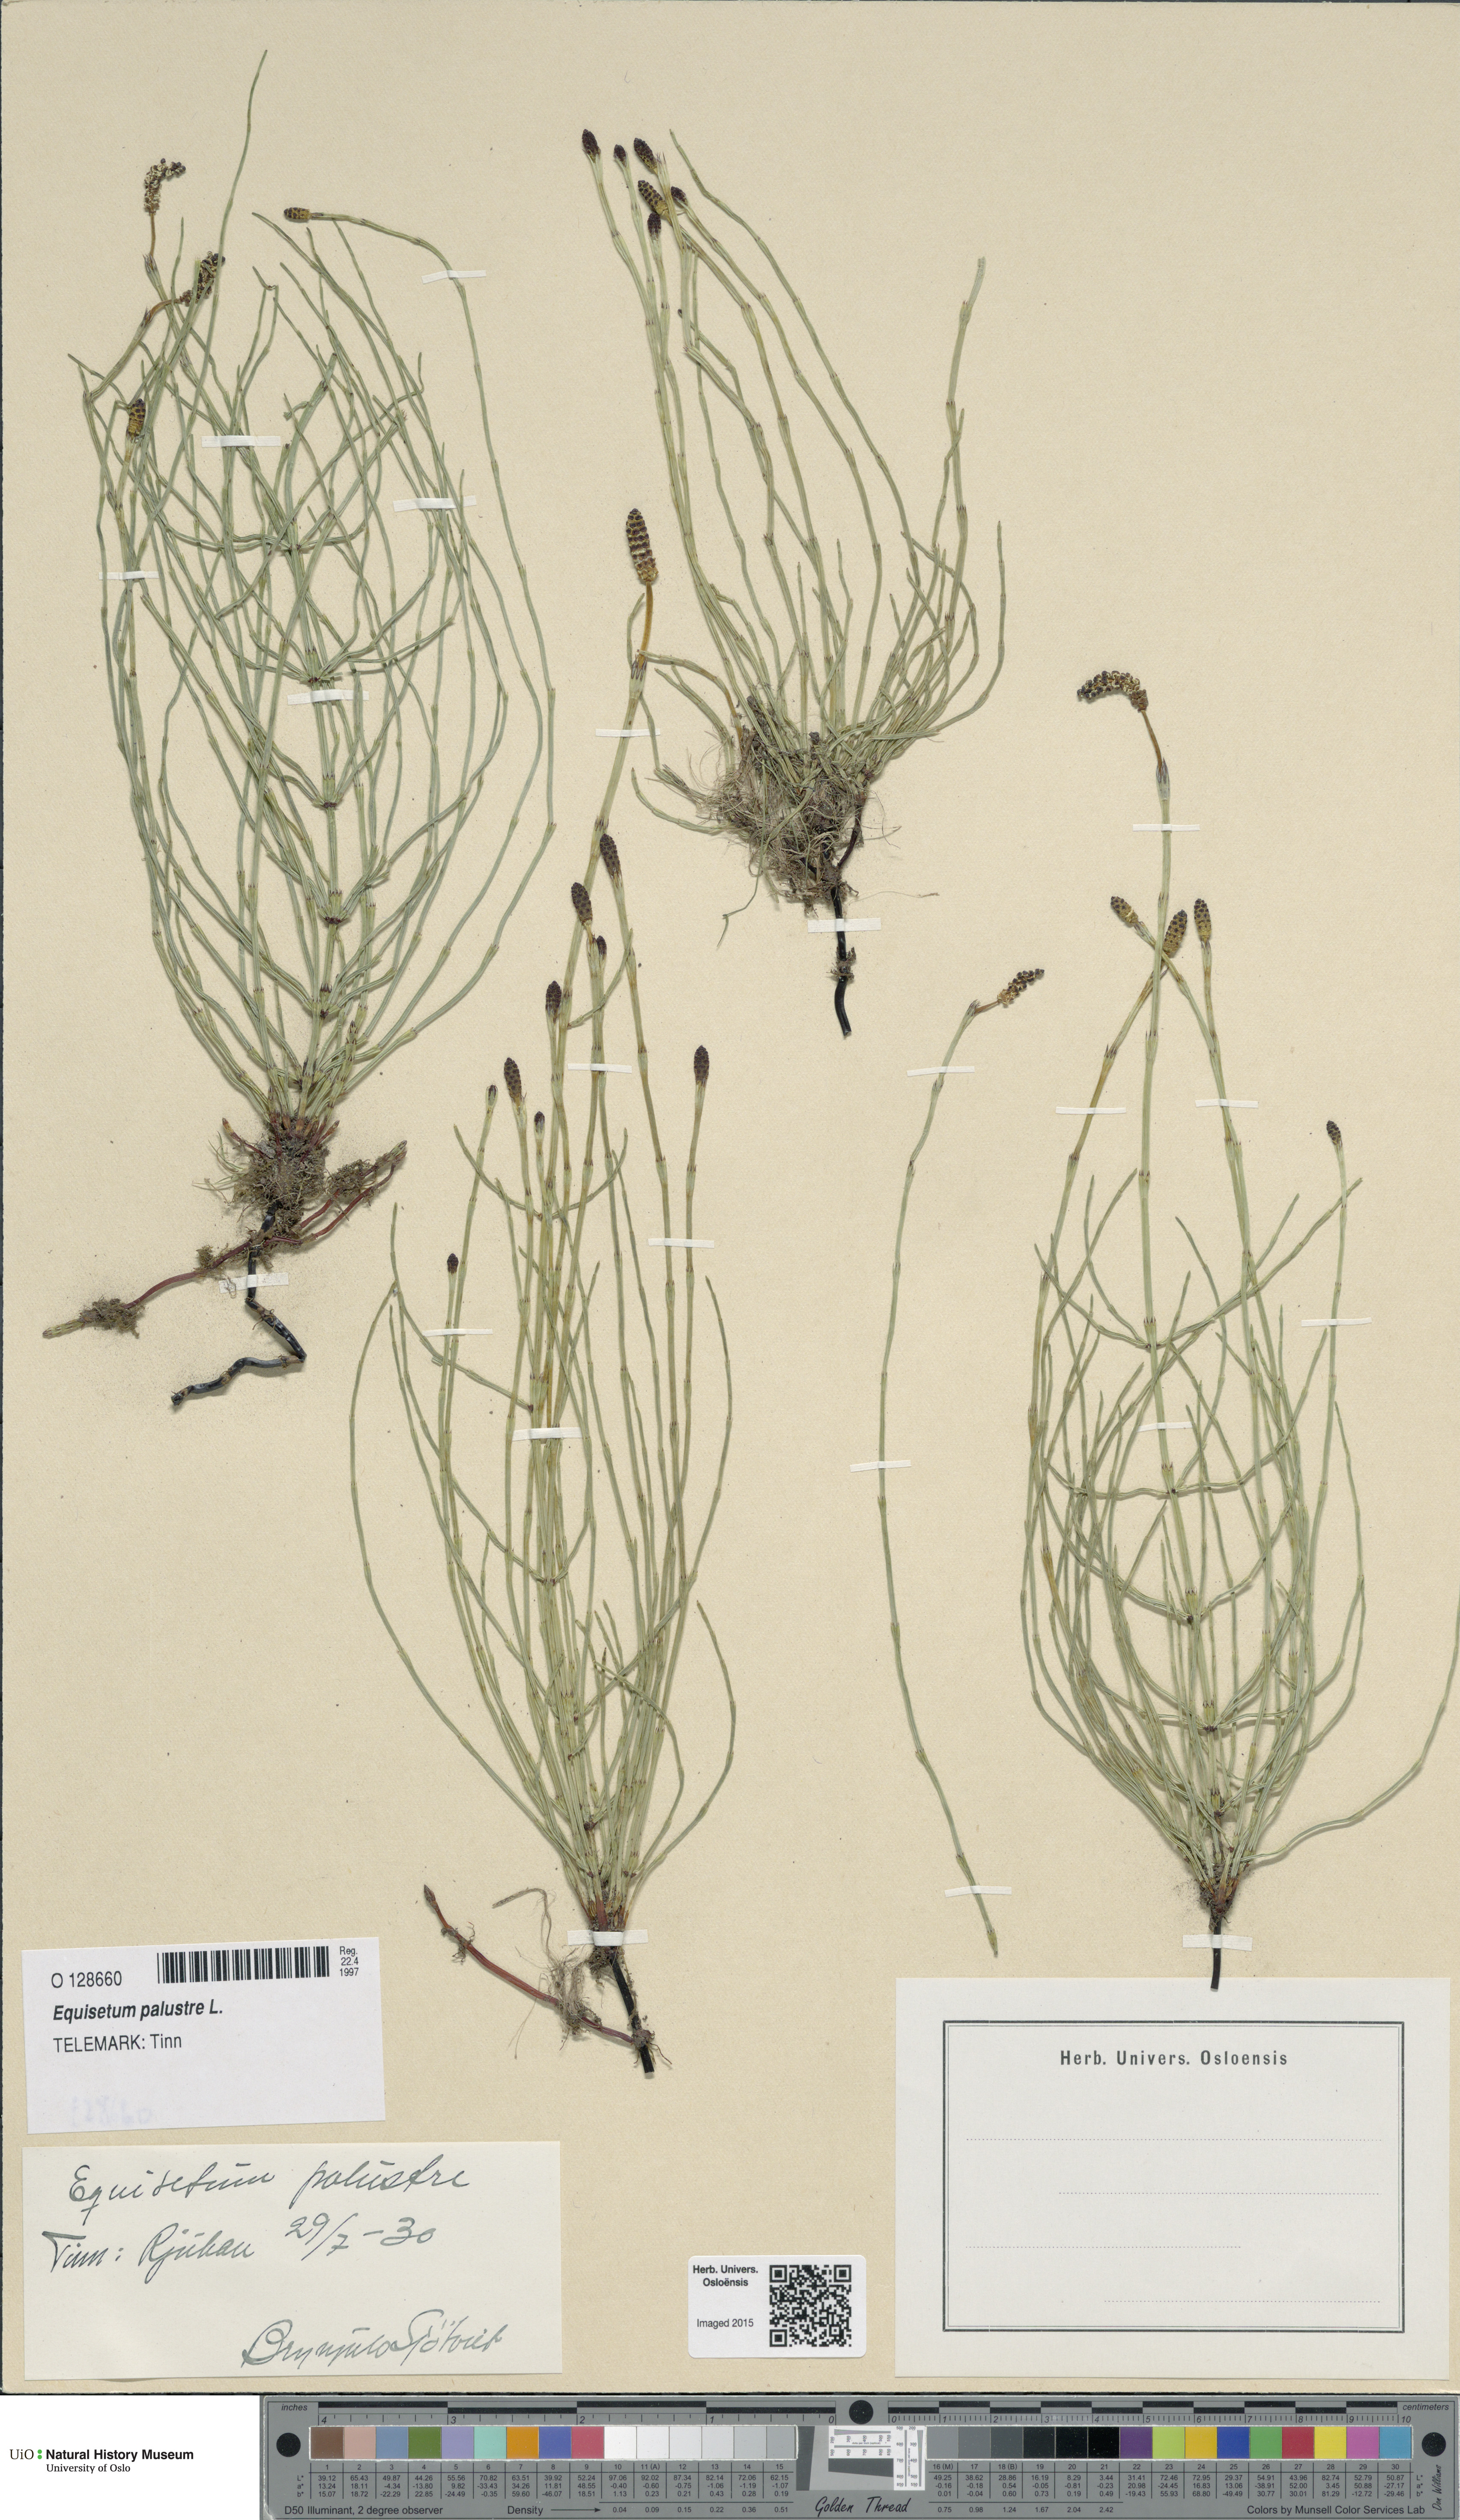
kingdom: Plantae
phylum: Tracheophyta
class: Polypodiopsida
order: Equisetales
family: Equisetaceae
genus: Equisetum
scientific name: Equisetum palustre
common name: Marsh horsetail
